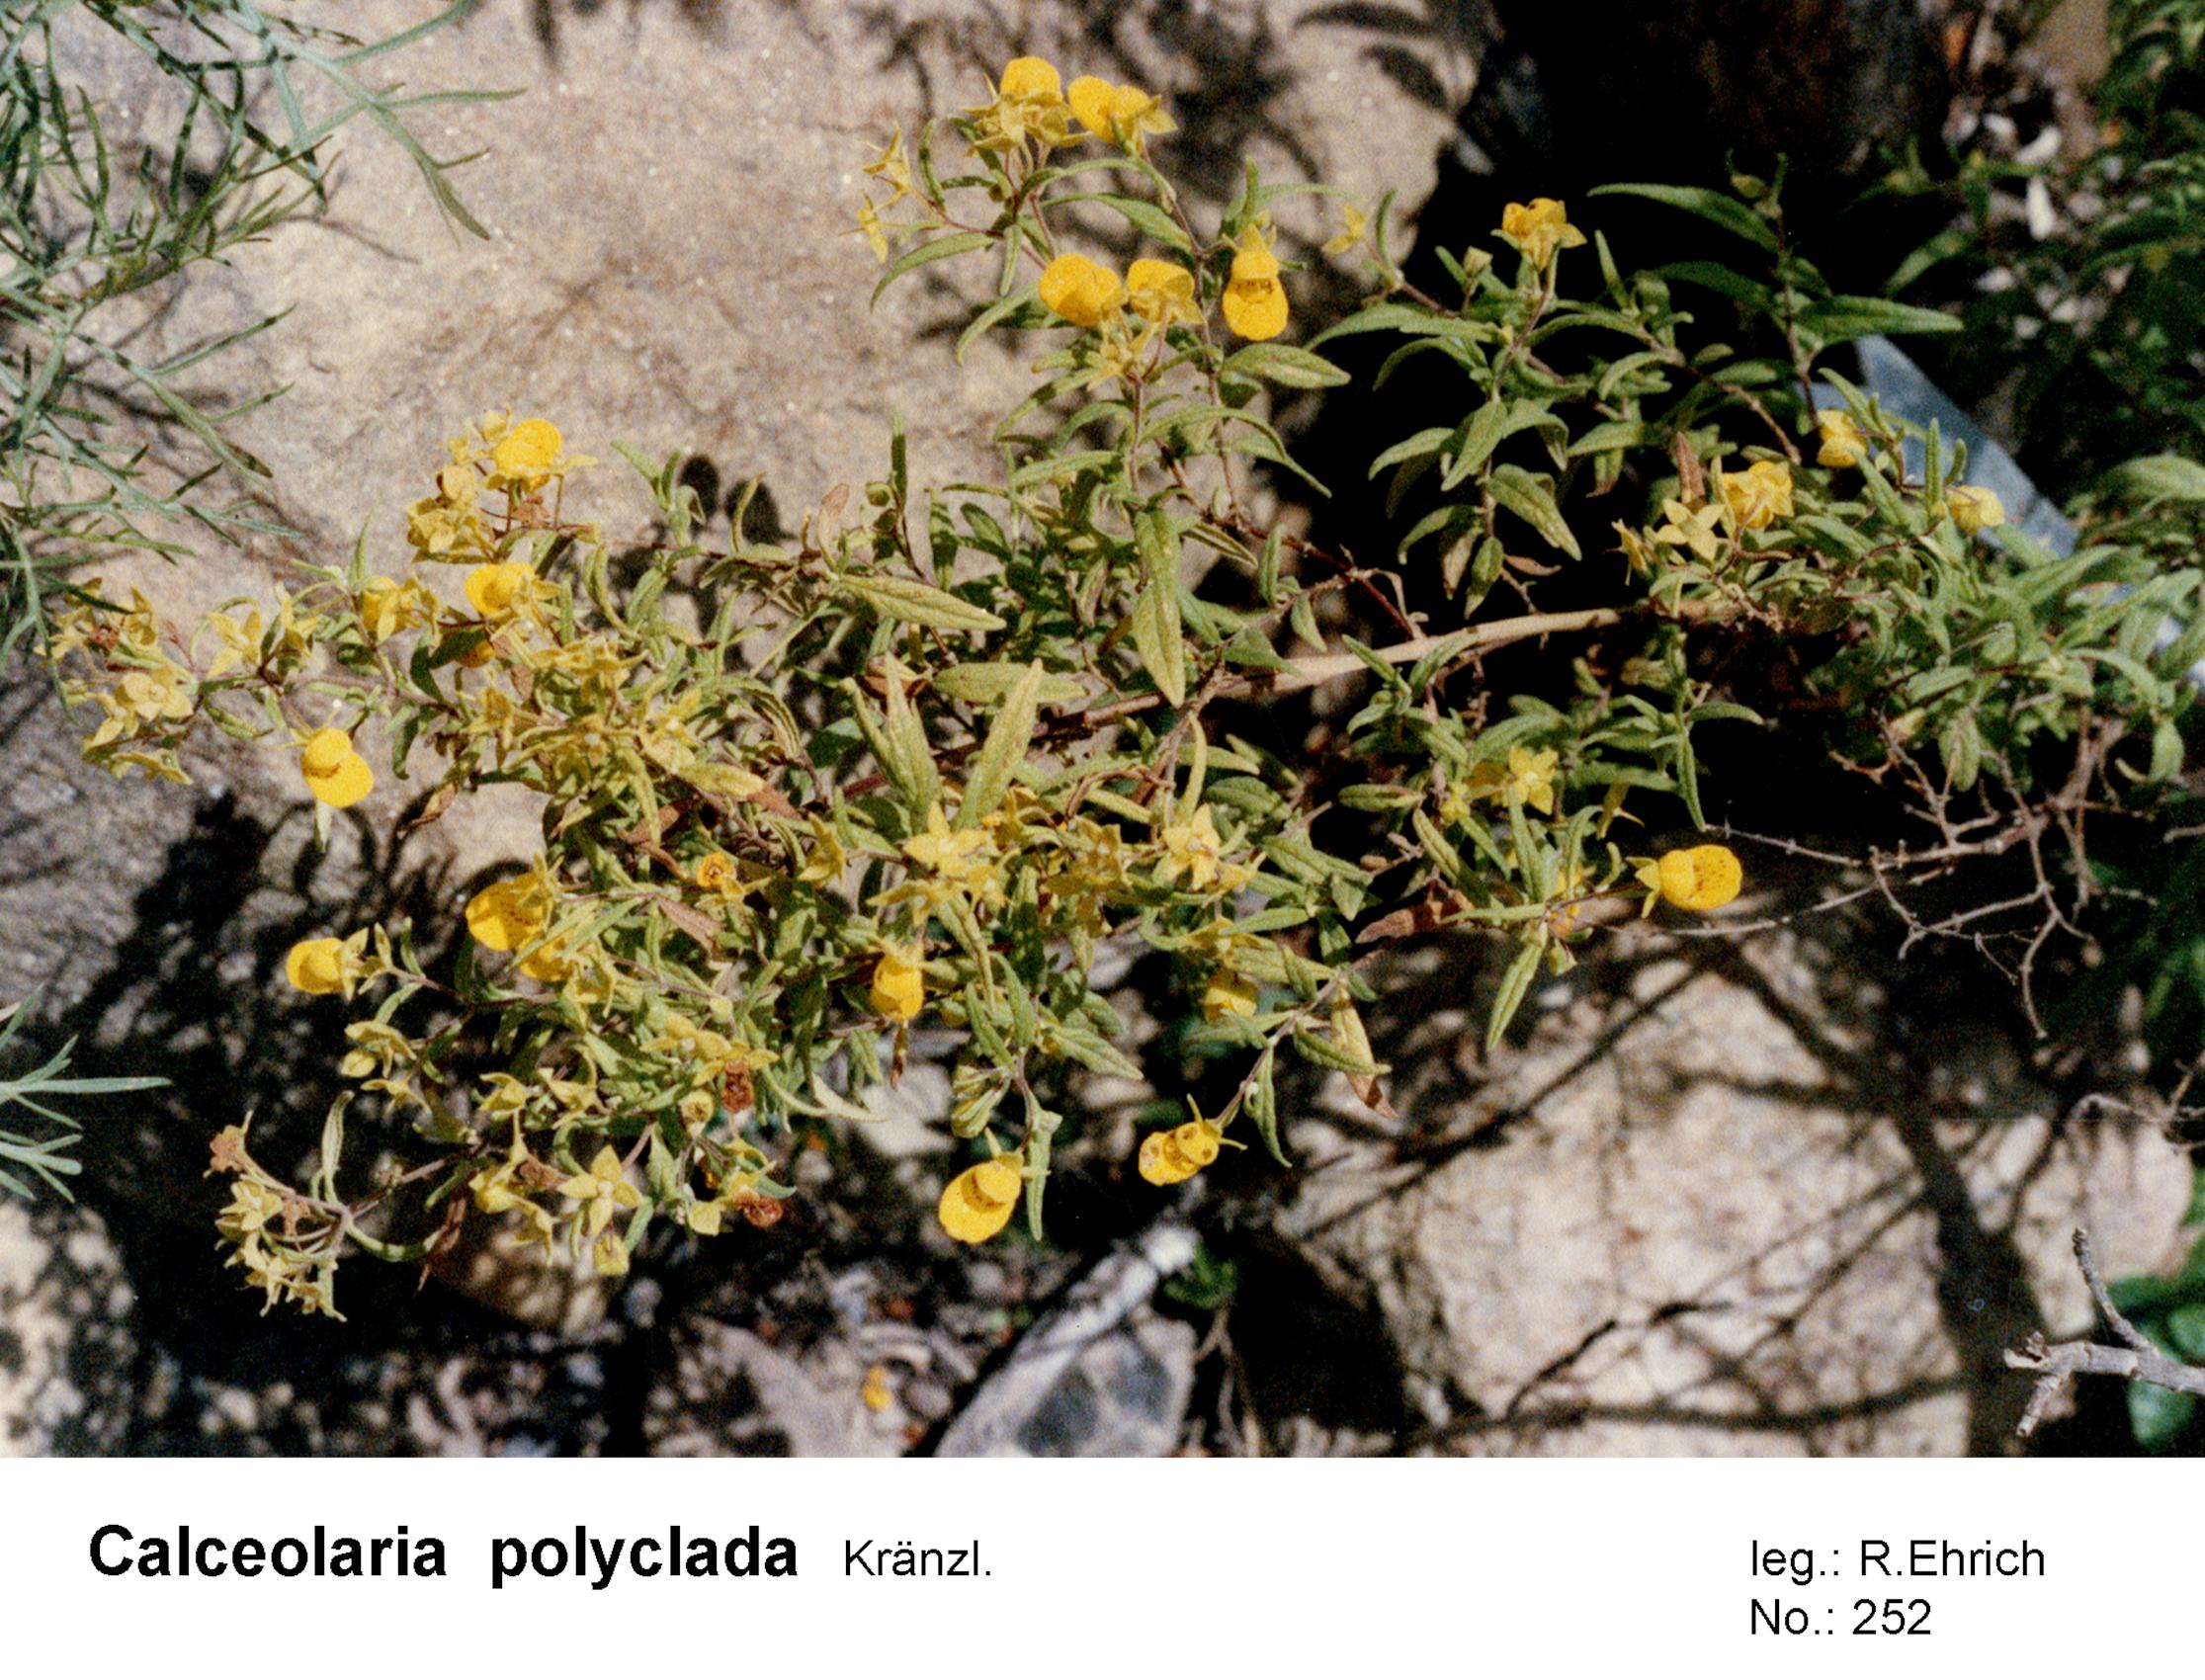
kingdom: Plantae
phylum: Tracheophyta
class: Magnoliopsida
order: Lamiales
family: Calceolariaceae
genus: Calceolaria
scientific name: Calceolaria polyclada
